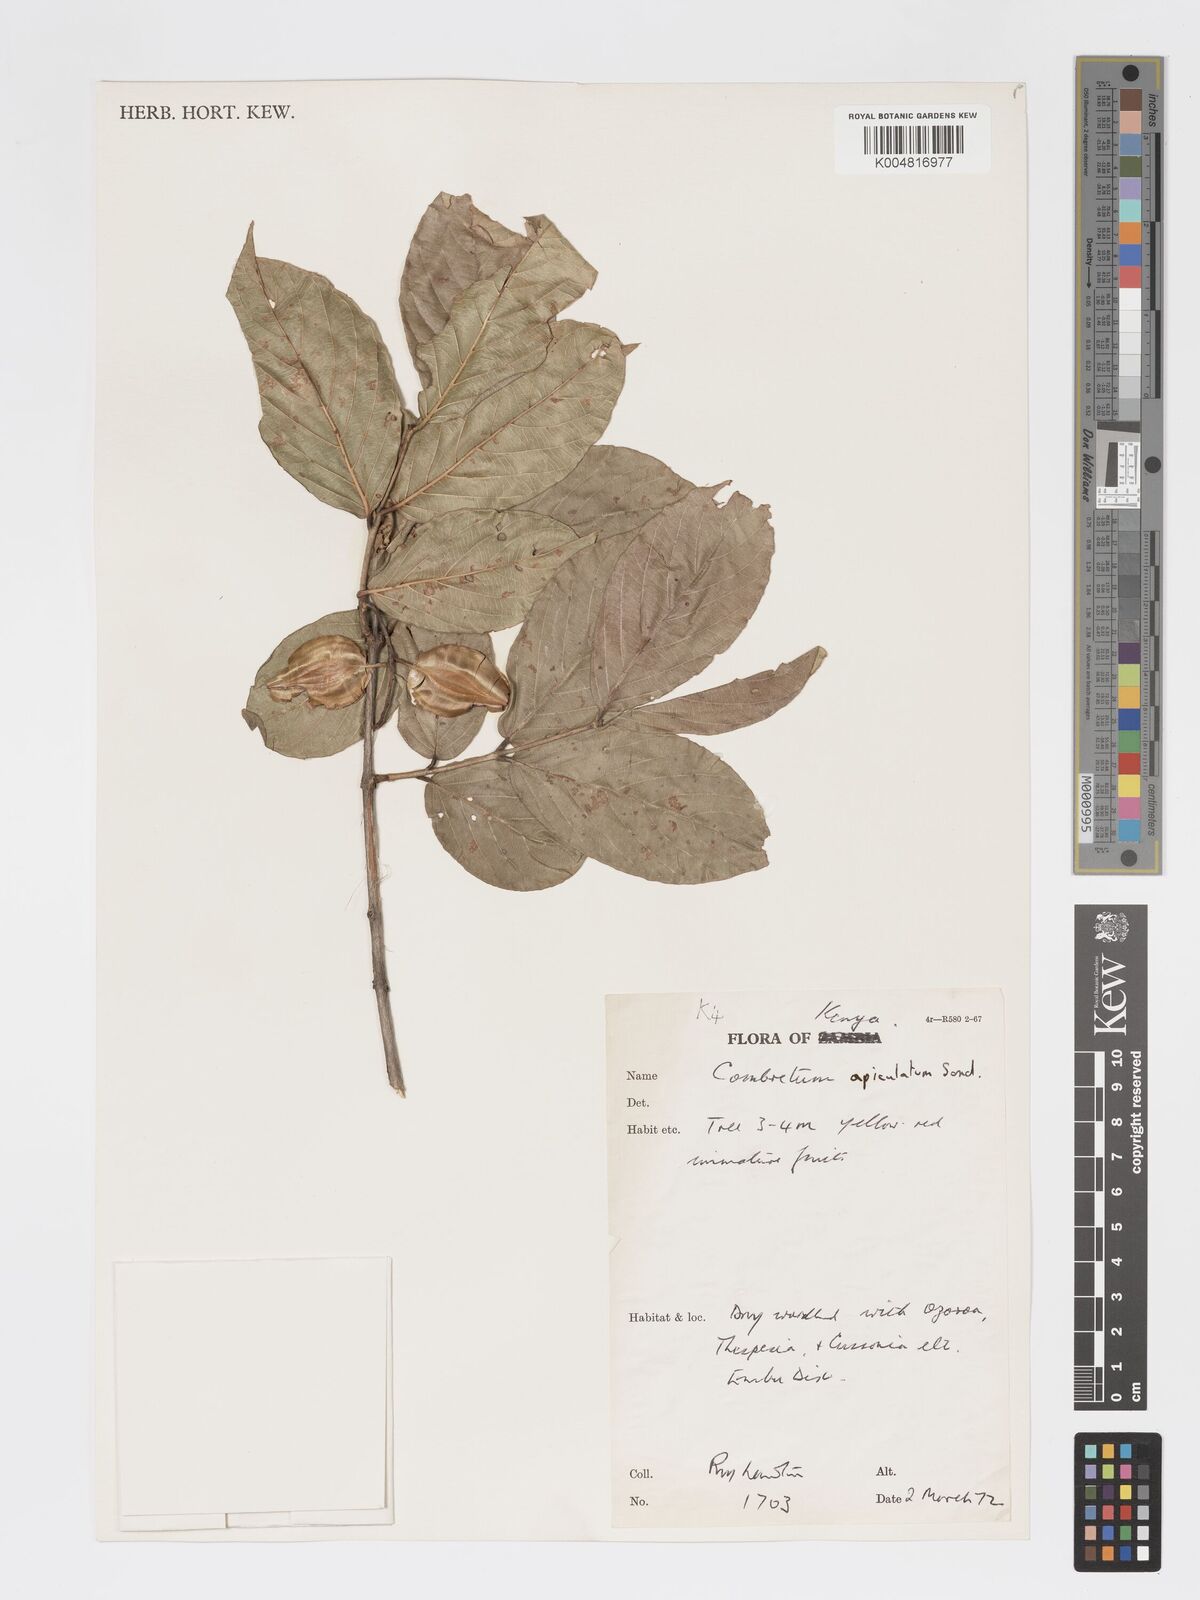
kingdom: Plantae
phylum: Tracheophyta
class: Magnoliopsida
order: Myrtales
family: Combretaceae
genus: Combretum
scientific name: Combretum apiculatum
